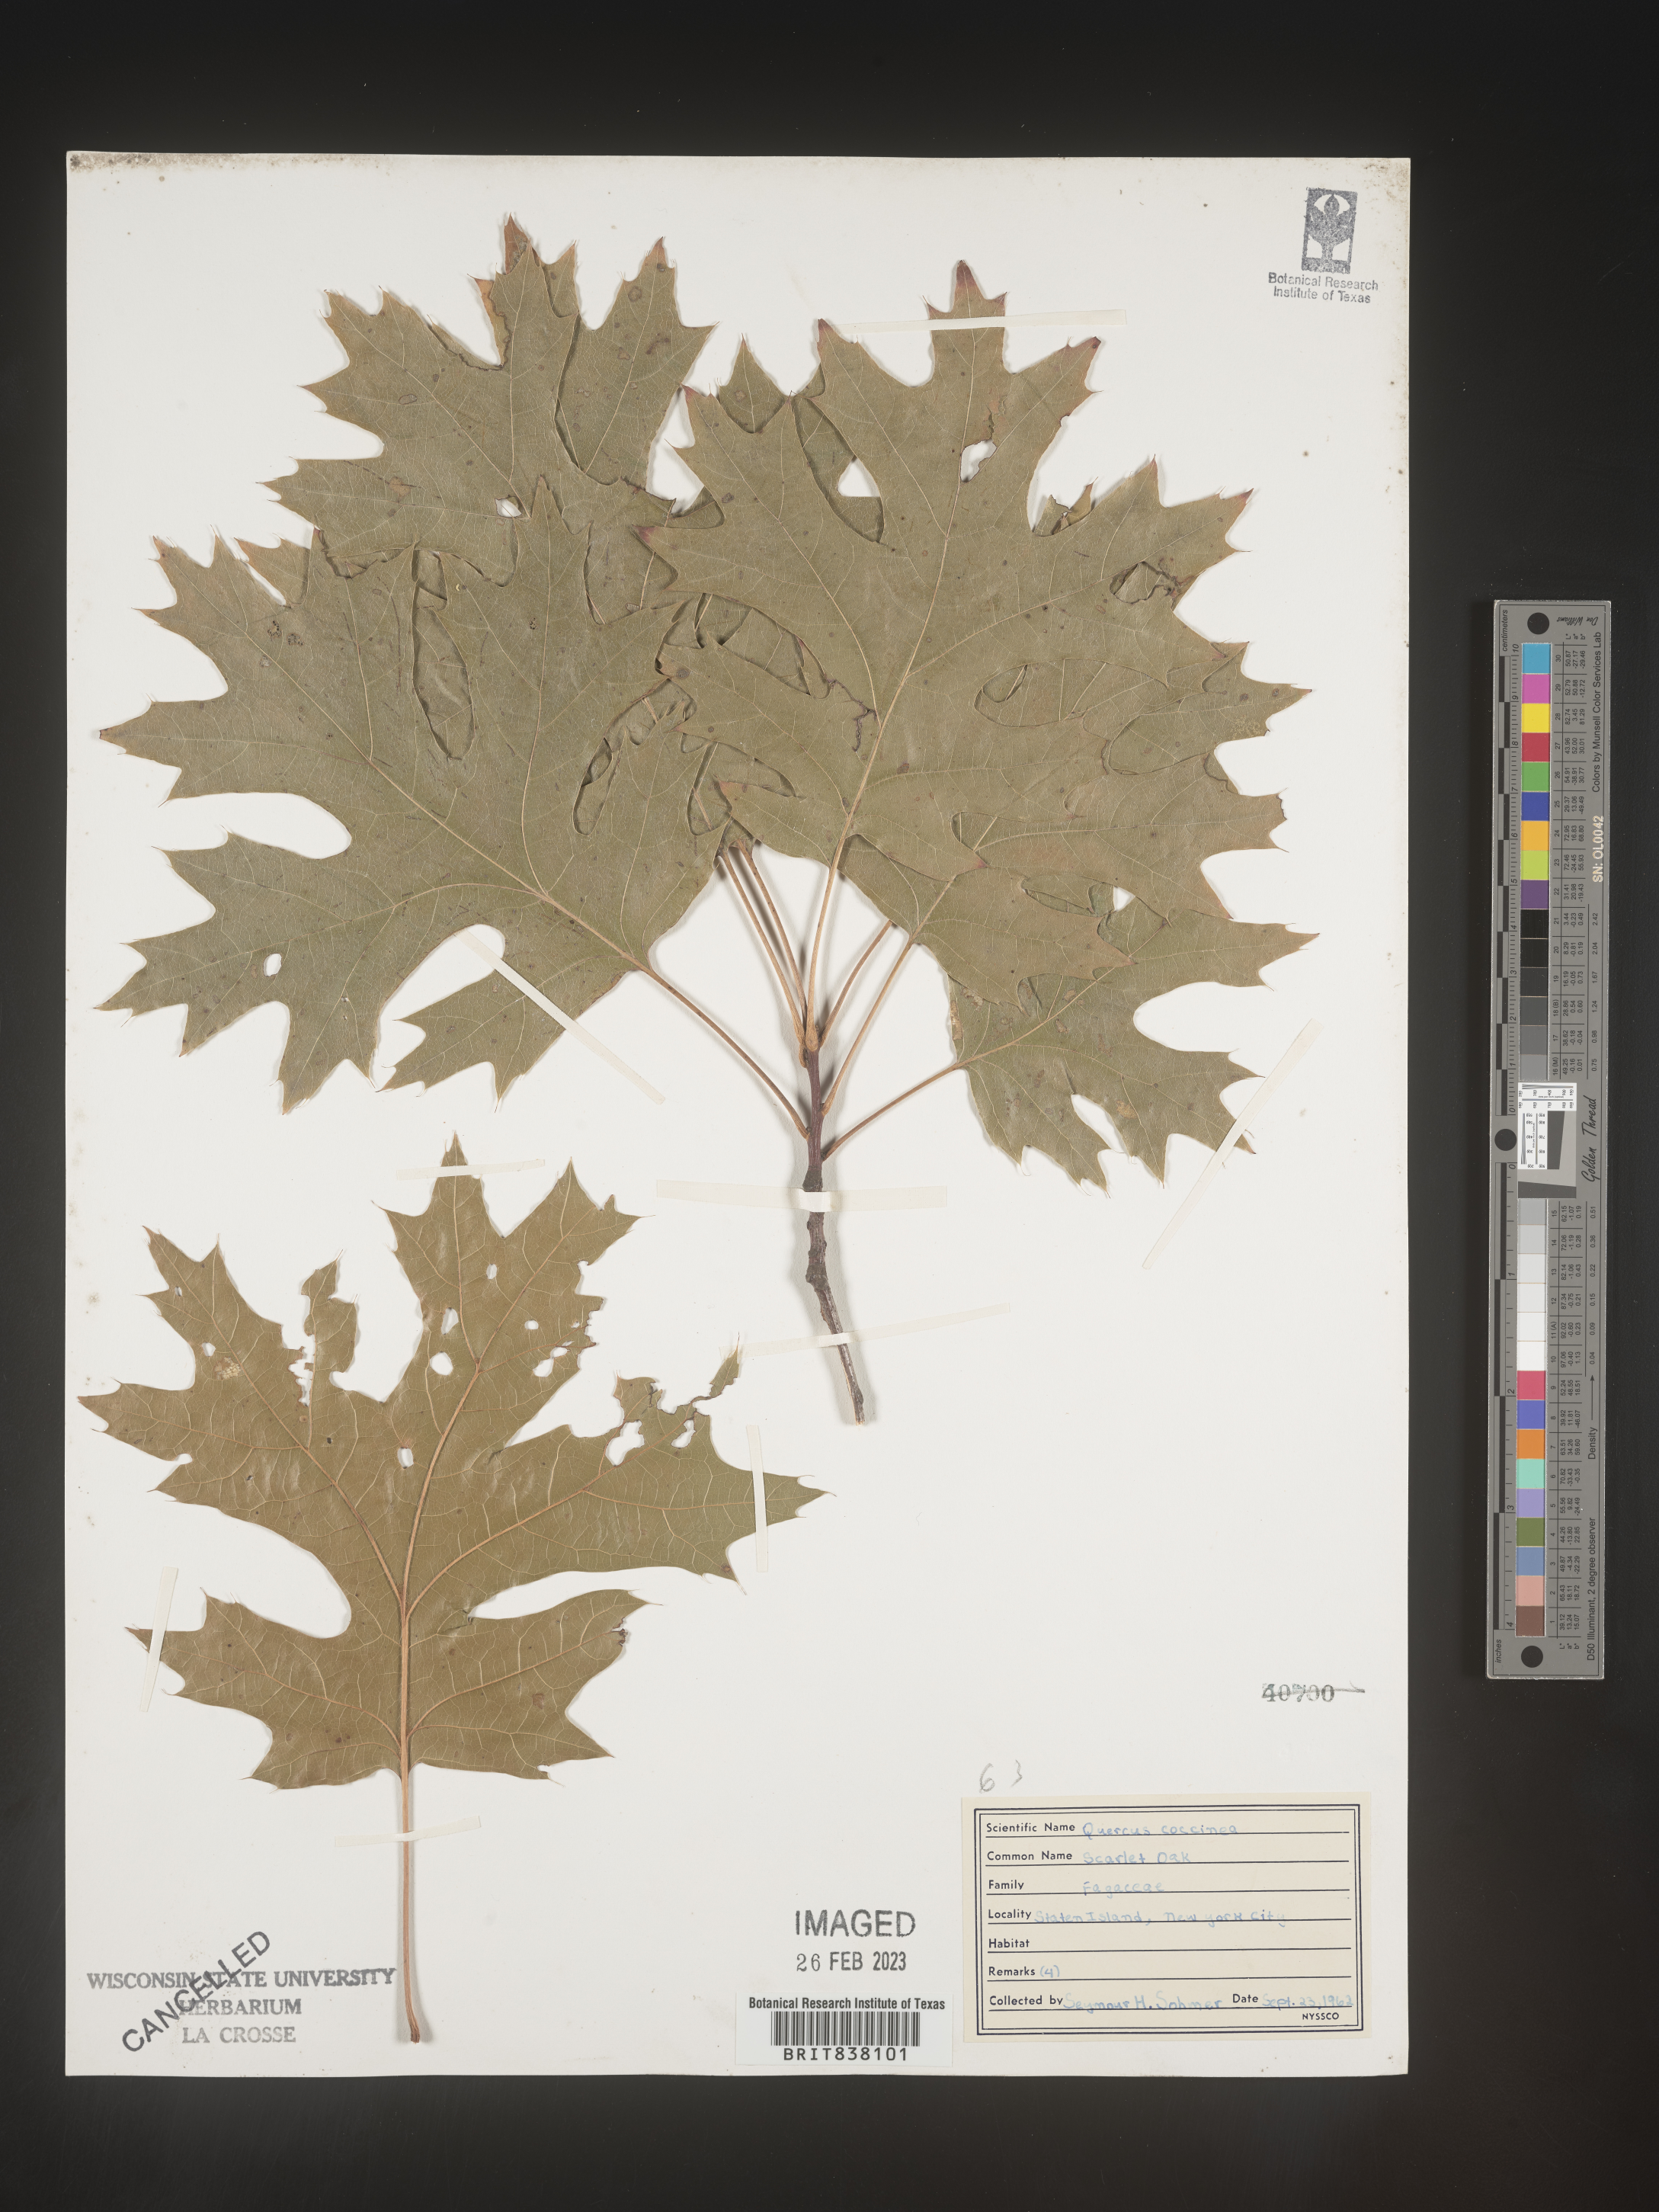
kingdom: Plantae
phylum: Tracheophyta
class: Magnoliopsida
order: Fagales
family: Fagaceae
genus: Quercus
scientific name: Quercus coccinea
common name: Scarlet oak
